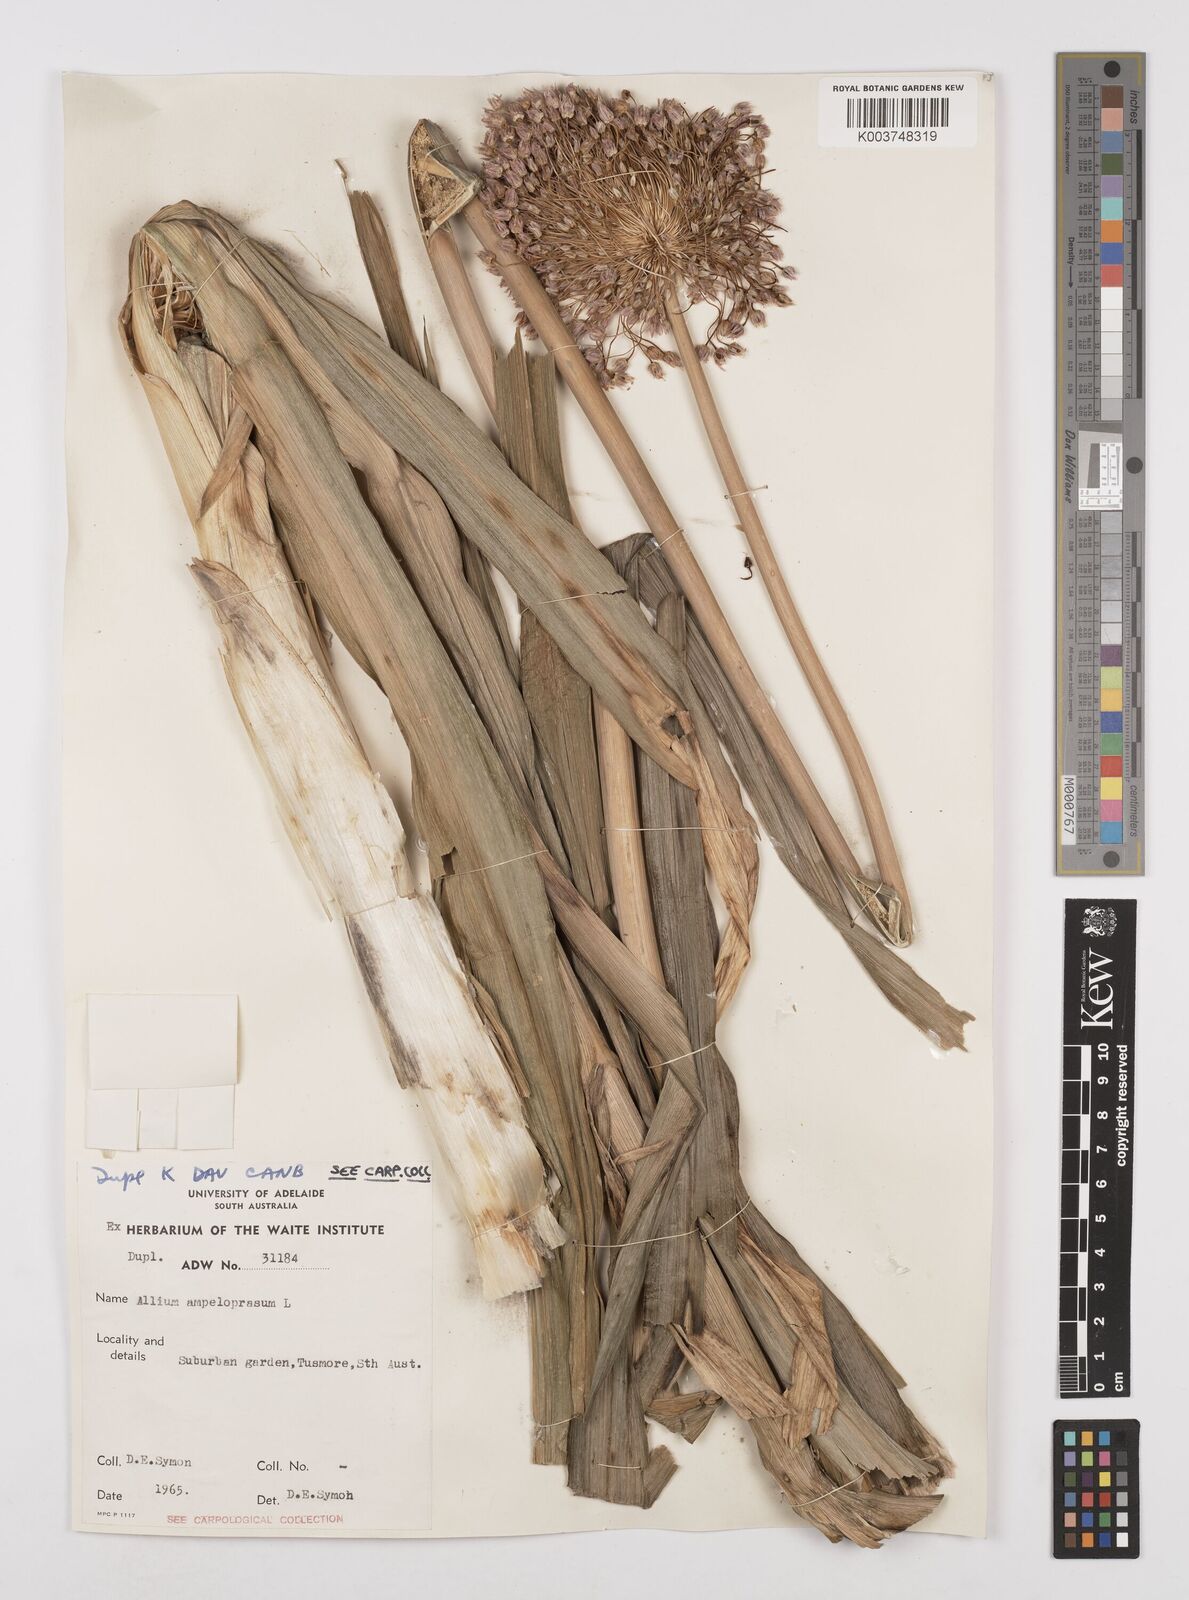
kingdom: Plantae
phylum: Tracheophyta
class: Liliopsida
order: Asparagales
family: Amaryllidaceae
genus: Allium
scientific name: Allium ampeloprasum
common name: Wild leek
